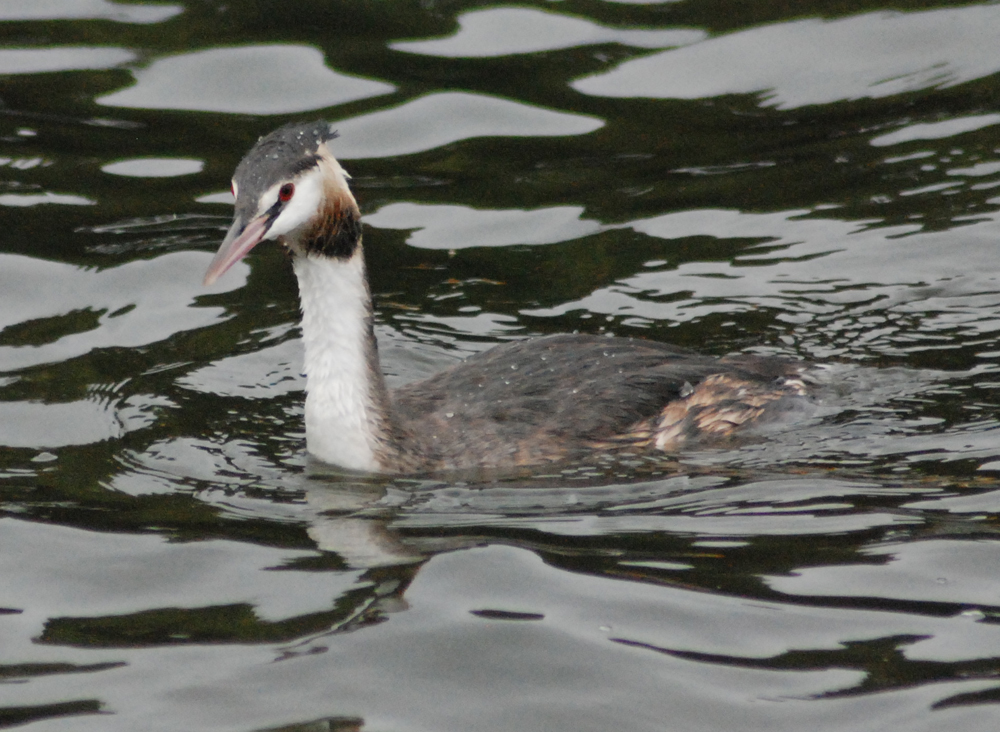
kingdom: Animalia
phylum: Chordata
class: Aves
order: Podicipediformes
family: Podicipedidae
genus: Podiceps
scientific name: Podiceps cristatus
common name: Great crested grebe
